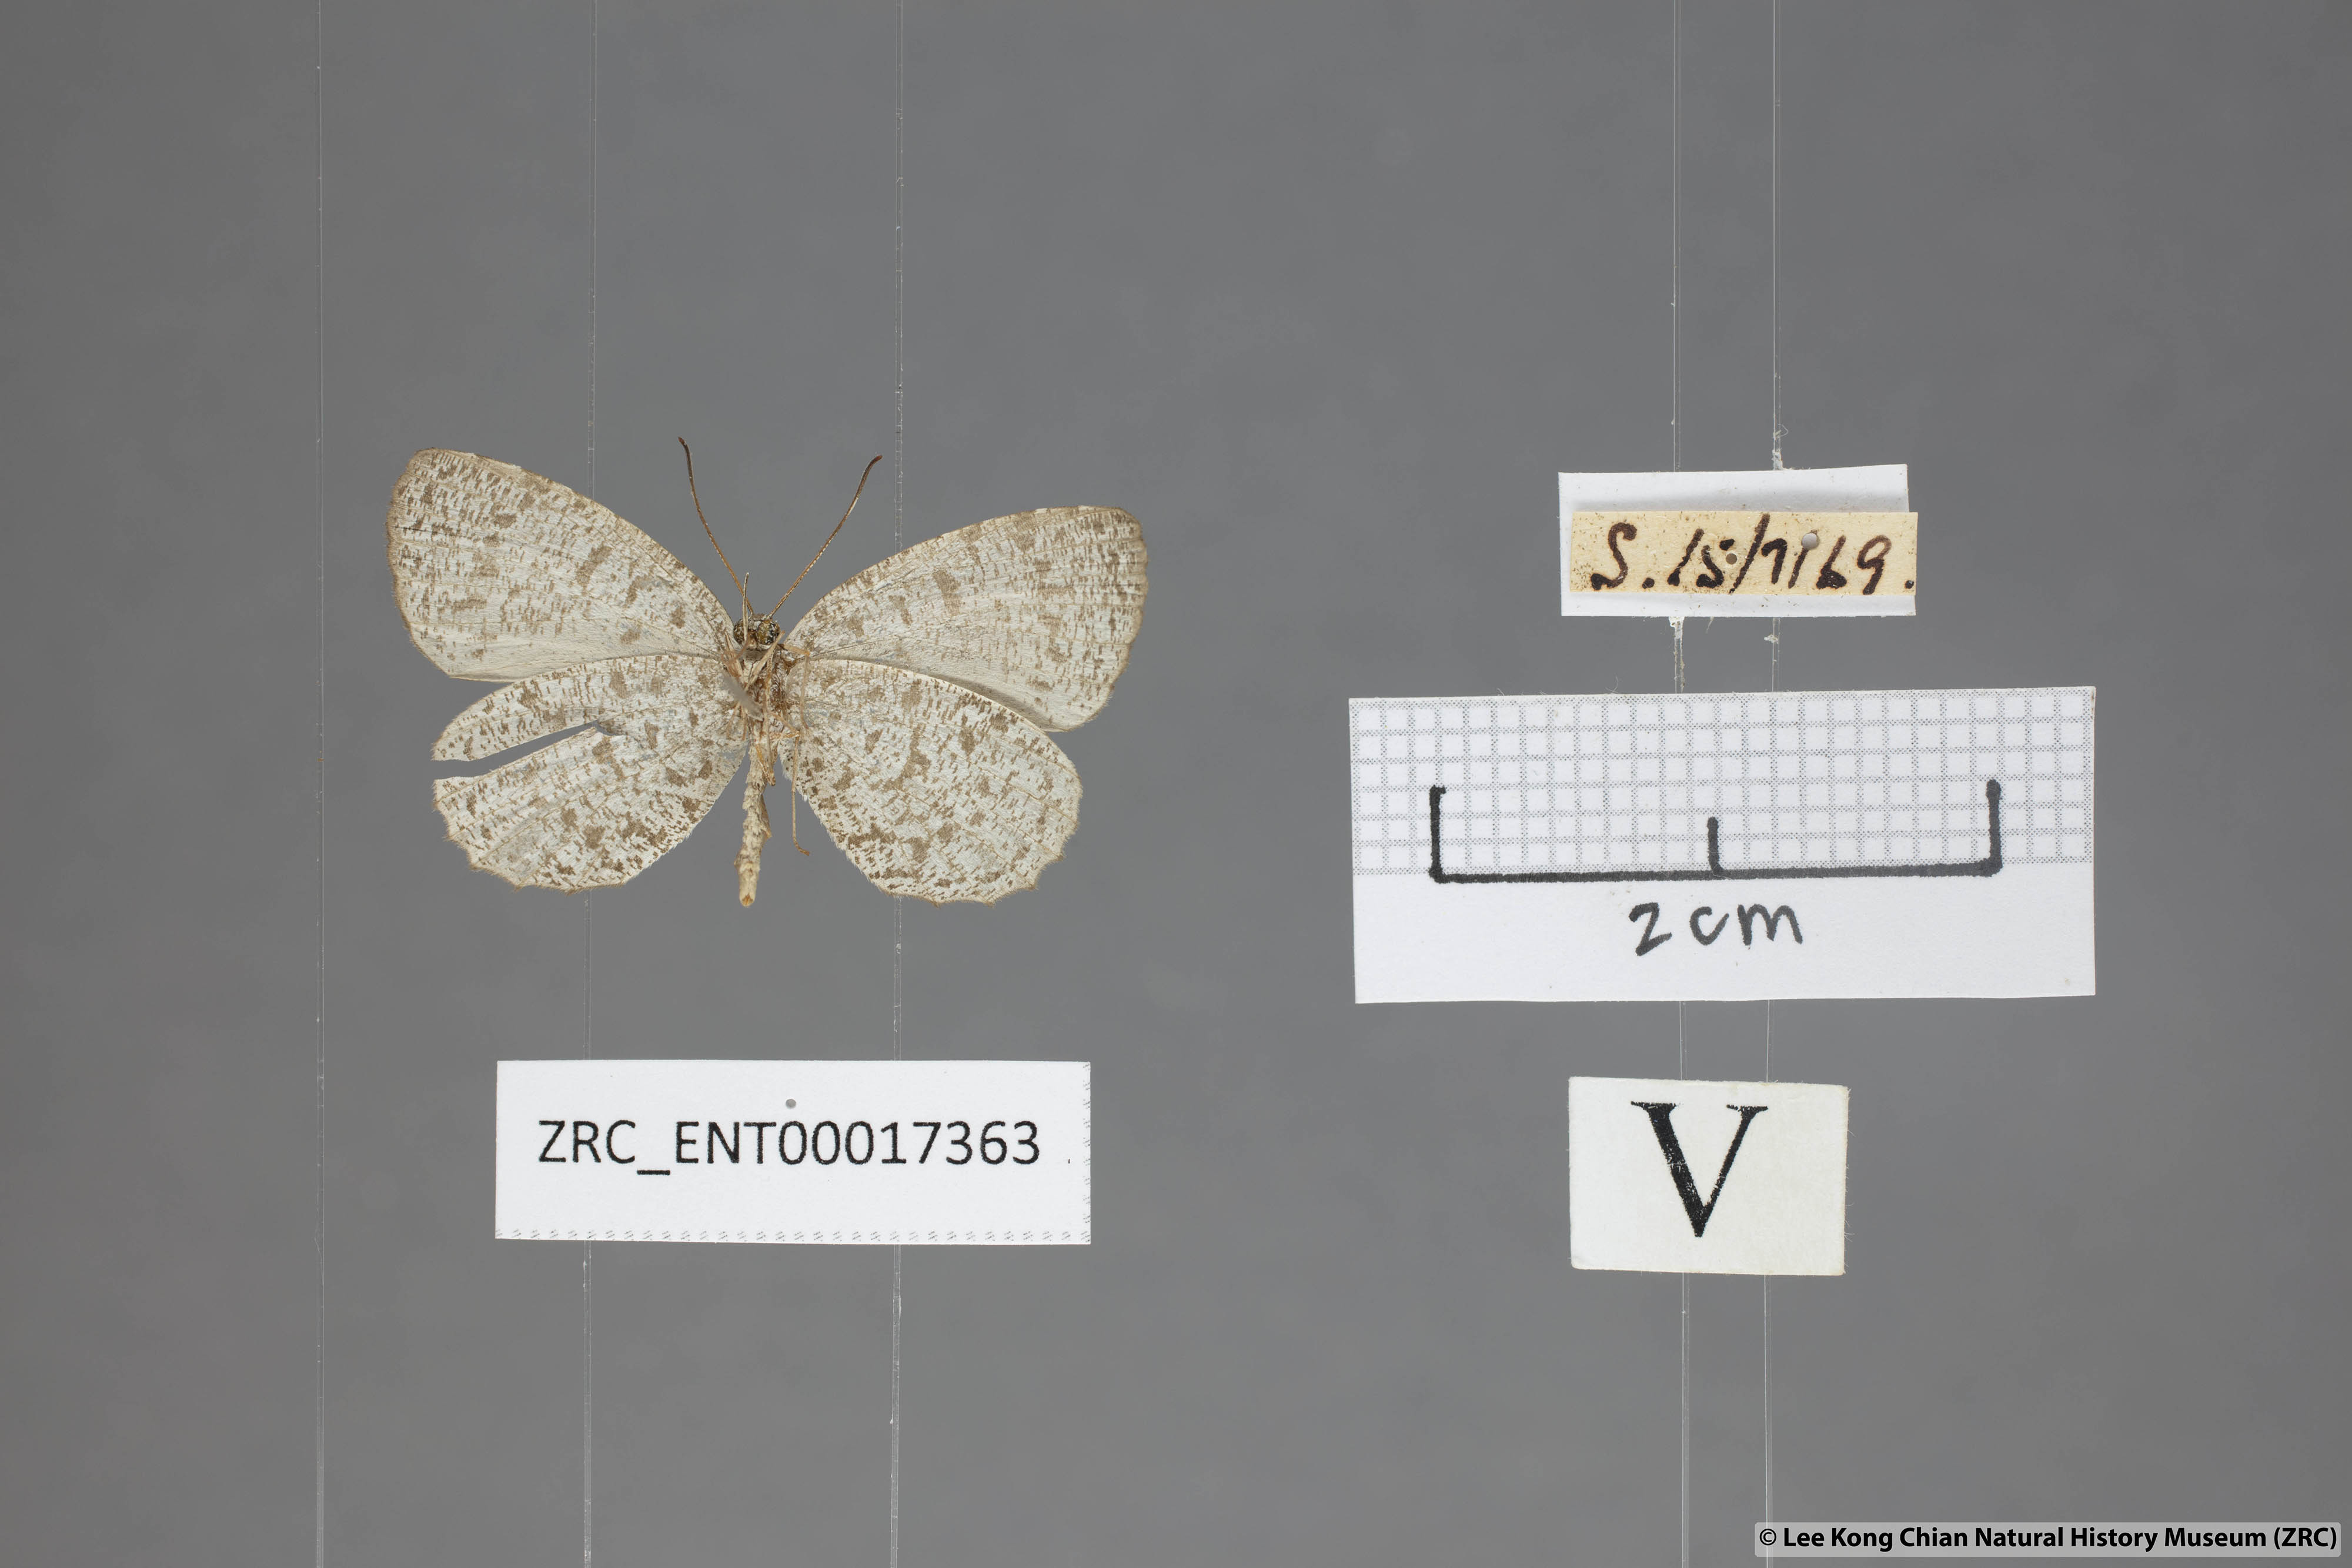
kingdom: Animalia
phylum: Arthropoda
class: Insecta
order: Lepidoptera
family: Lycaenidae
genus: Allotinus
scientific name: Allotinus unicolor
